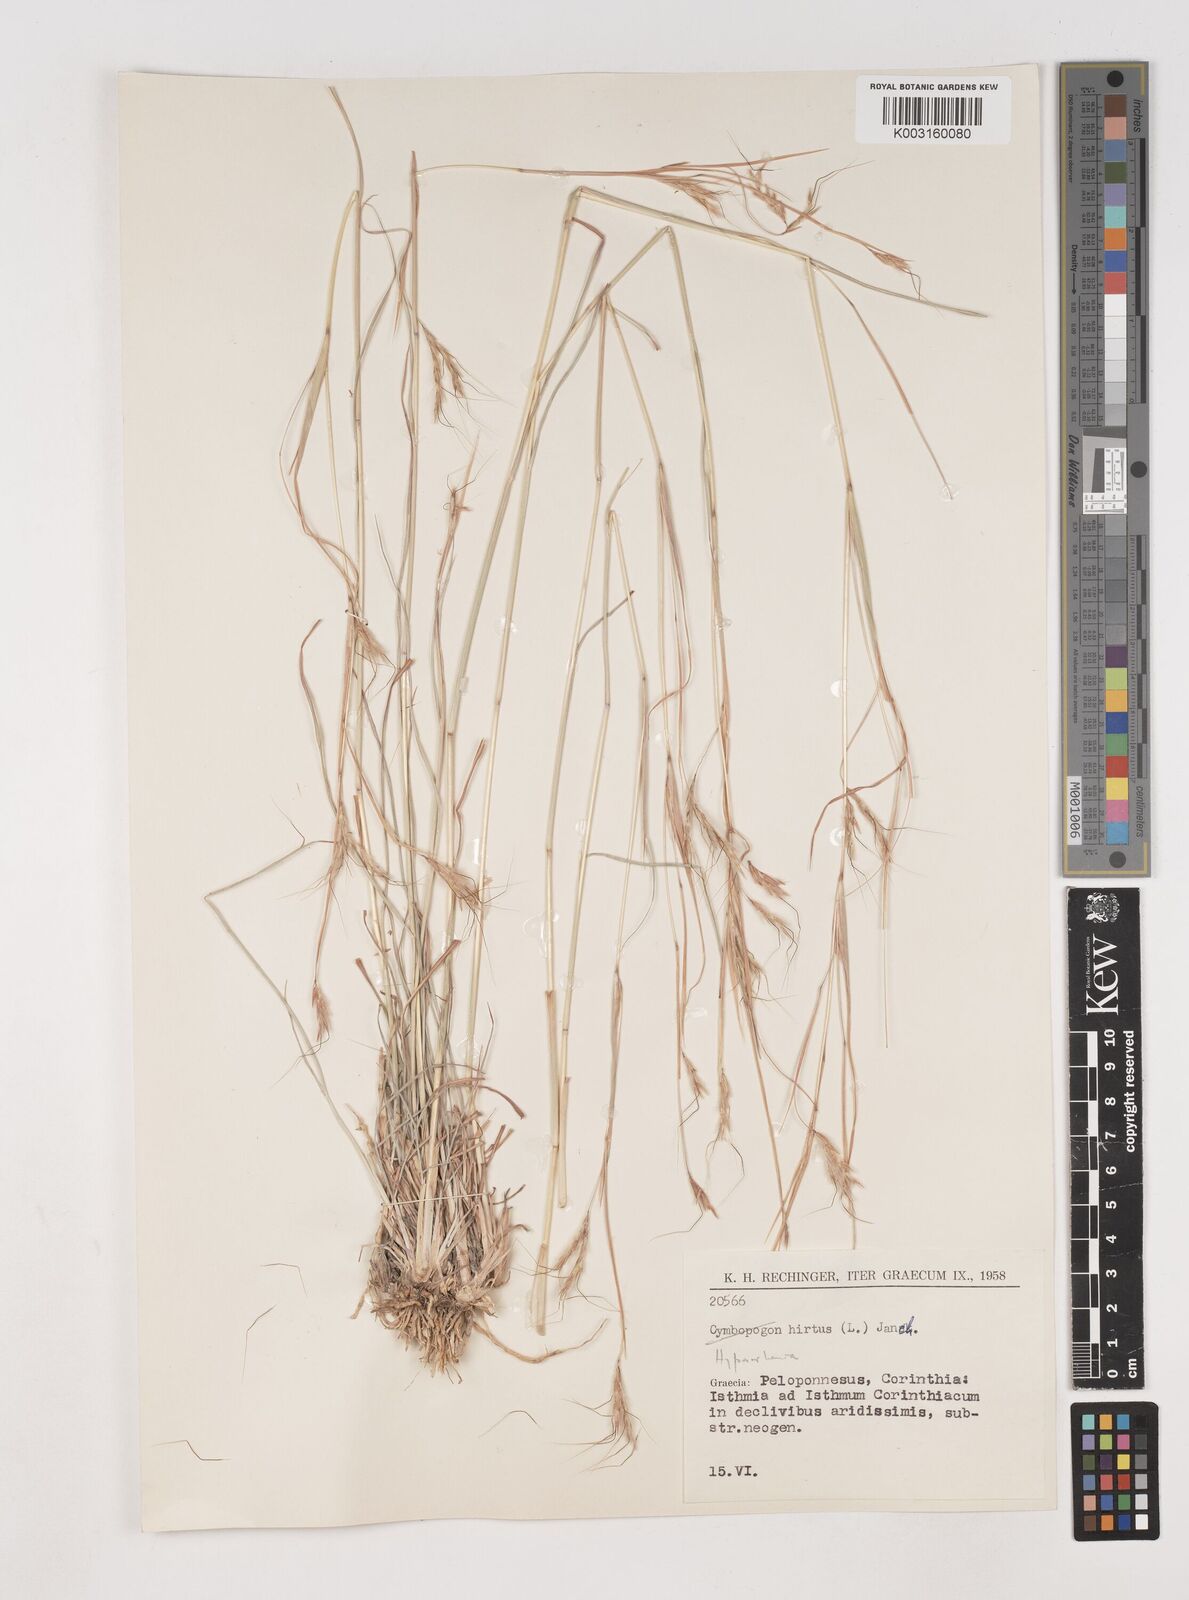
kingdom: Plantae
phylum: Tracheophyta
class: Liliopsida
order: Poales
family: Poaceae
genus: Hyparrhenia
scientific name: Hyparrhenia hirta
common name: Thatching grass
